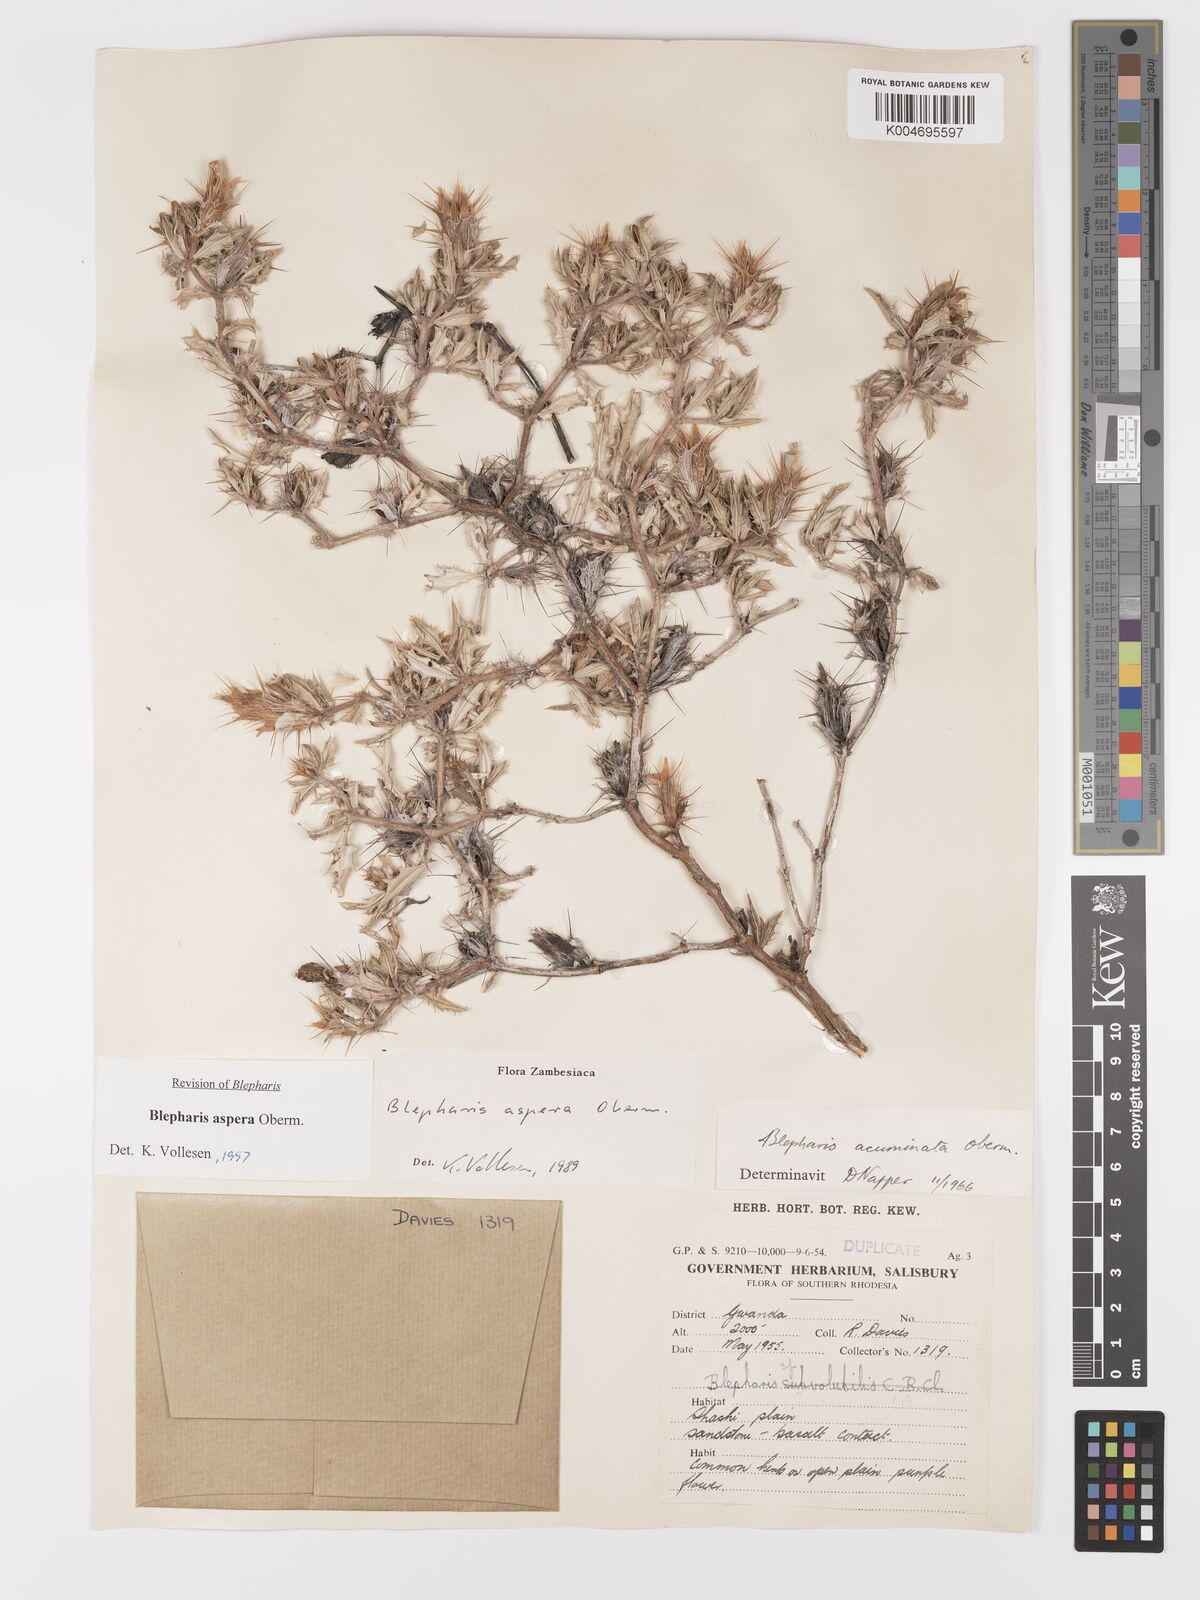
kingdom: Plantae
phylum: Tracheophyta
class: Magnoliopsida
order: Lamiales
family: Acanthaceae
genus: Blepharis
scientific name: Blepharis aspera
